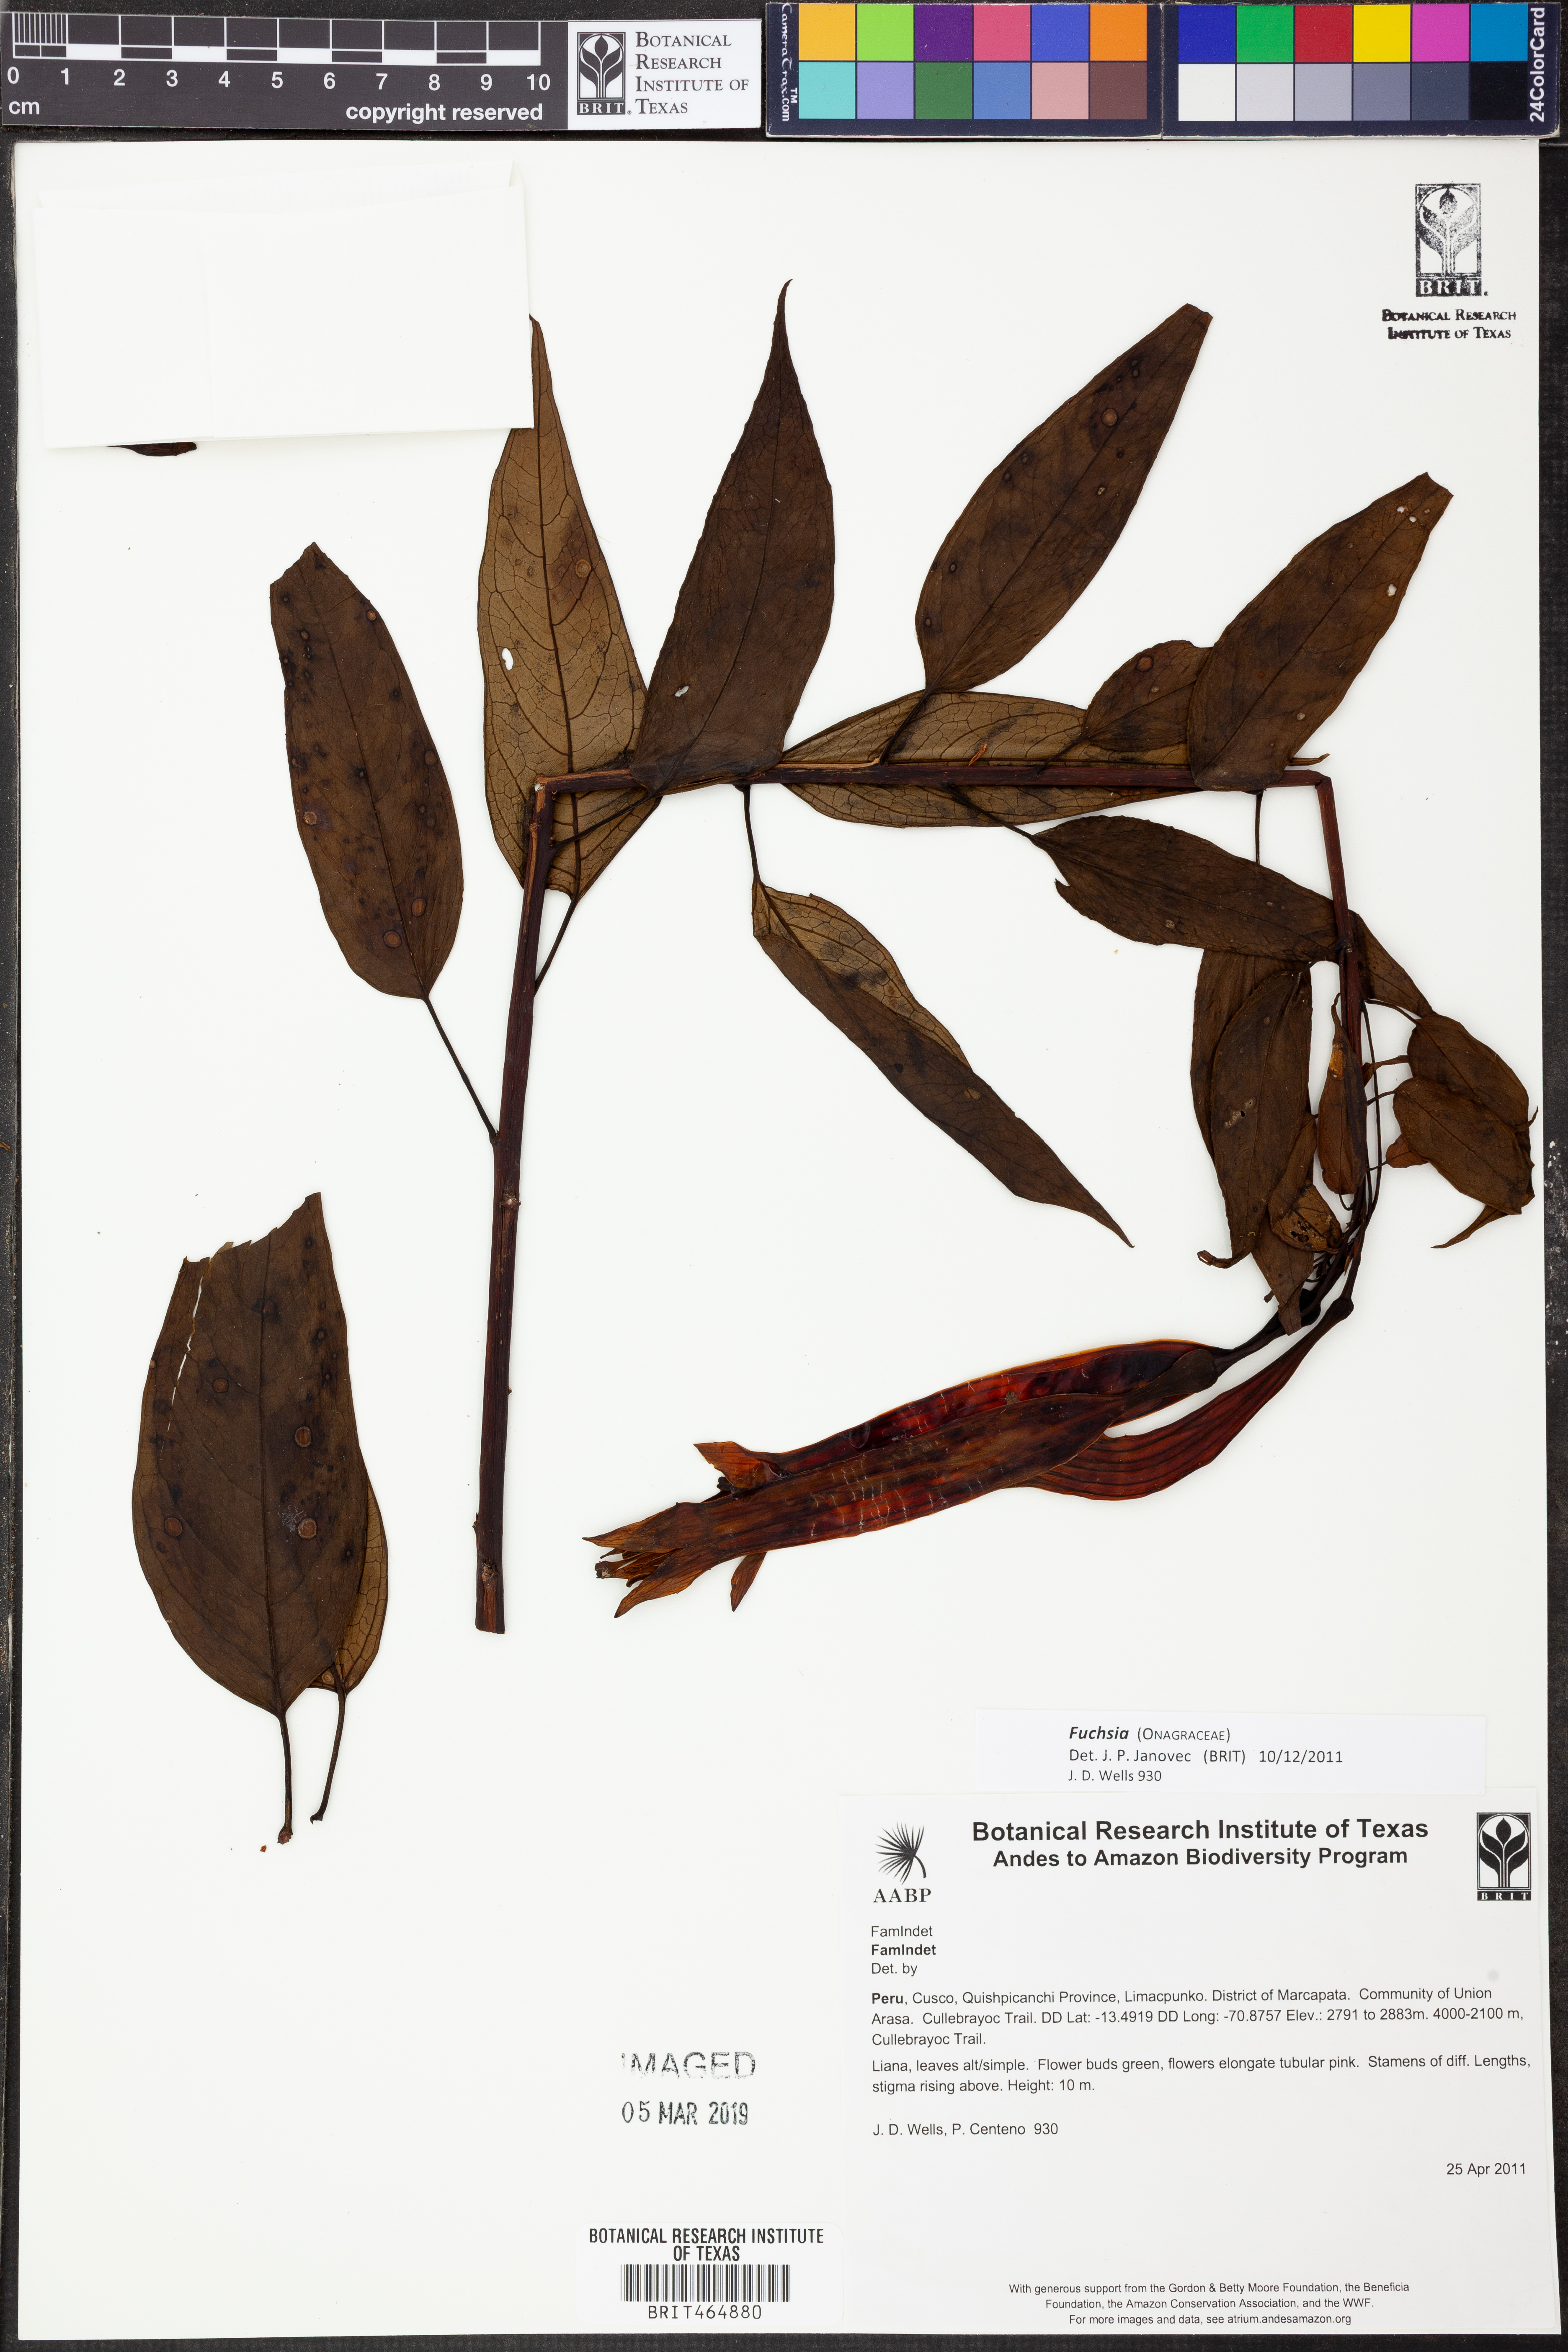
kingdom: Plantae
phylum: Tracheophyta
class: Magnoliopsida
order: Myrtales
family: Onagraceae
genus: Fuchsia
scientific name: Fuchsia
